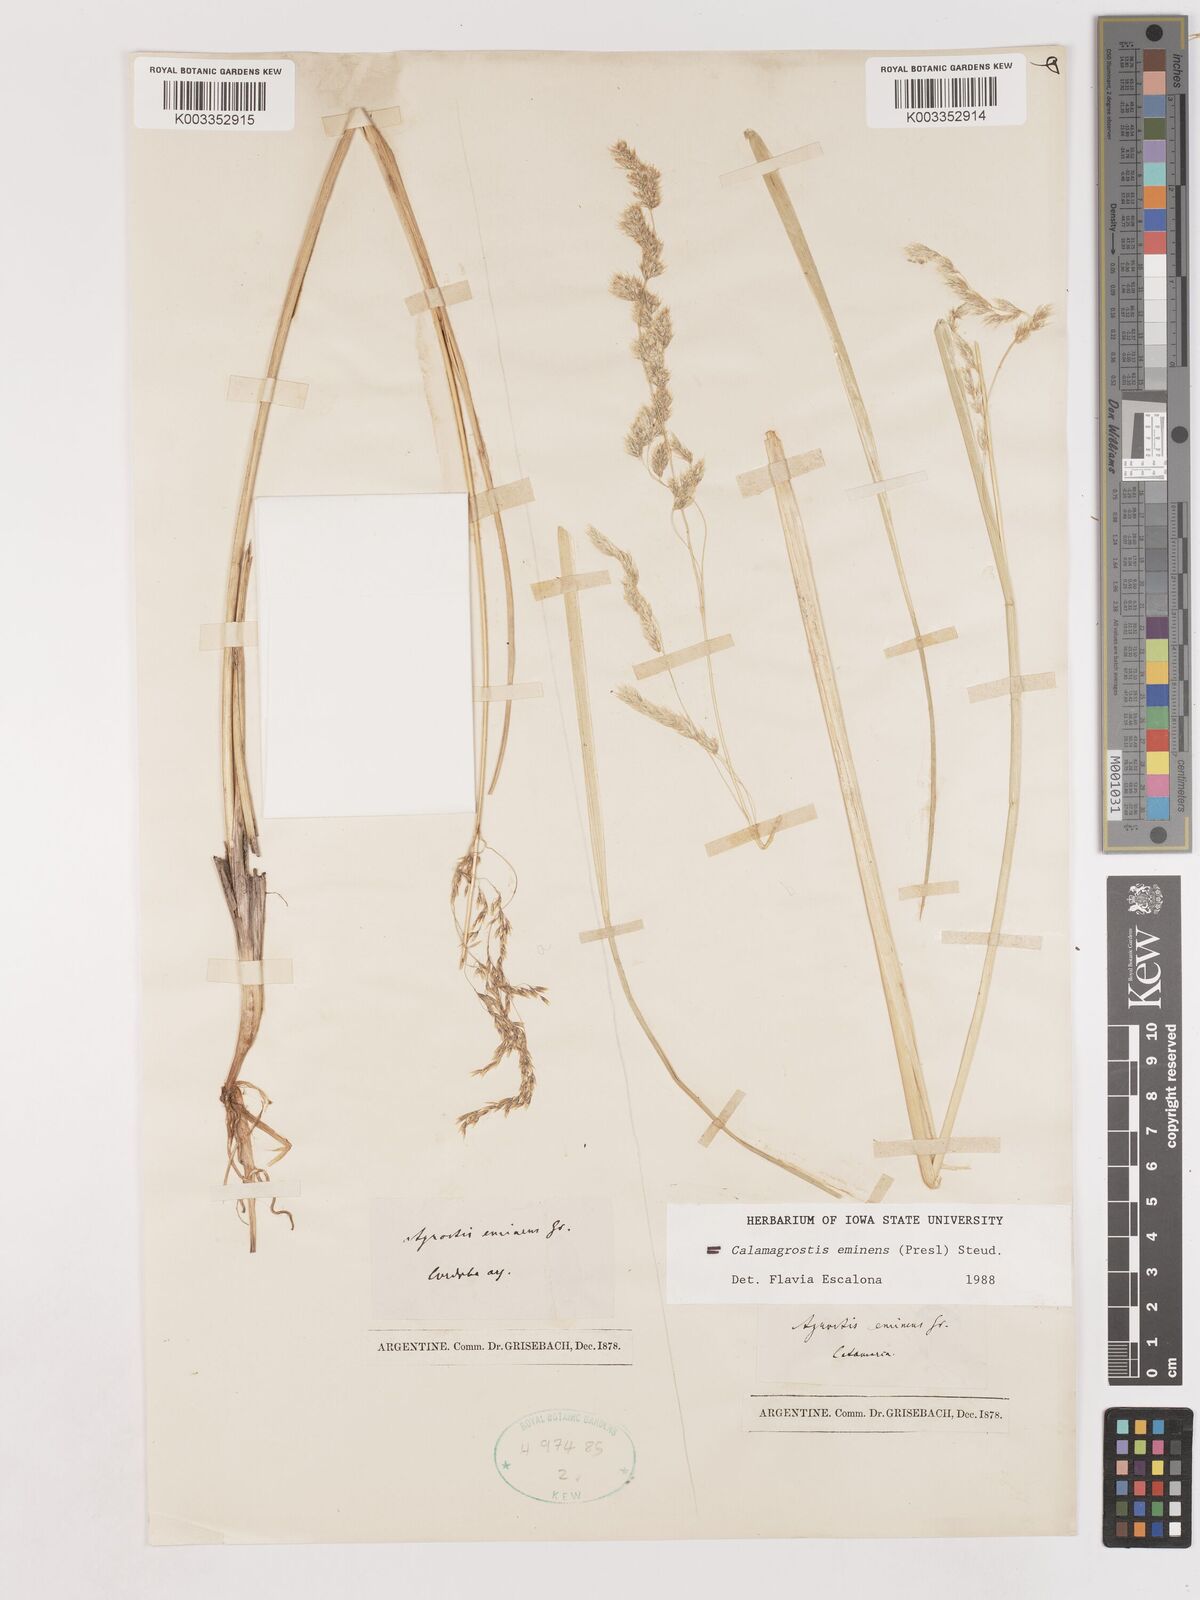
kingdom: Plantae
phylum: Tracheophyta
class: Liliopsida
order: Poales
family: Poaceae
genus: Deschampsia
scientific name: Deschampsia eminens
